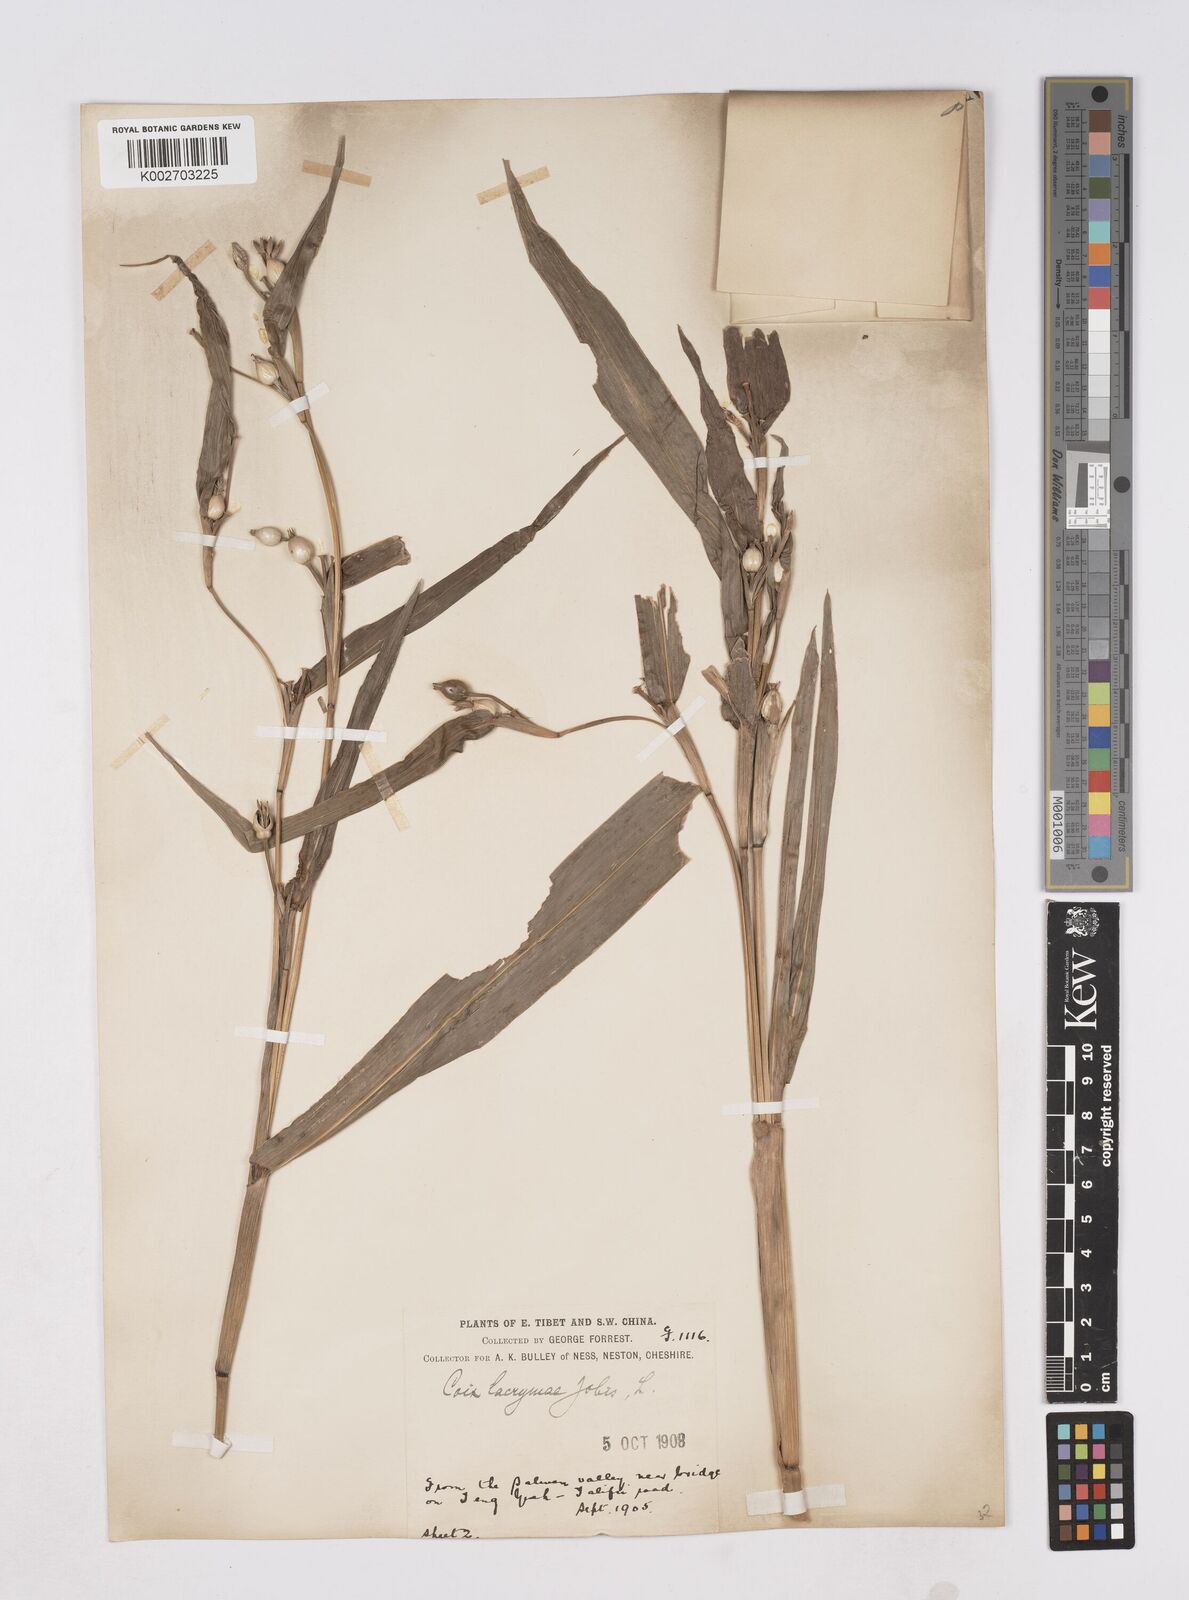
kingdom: Plantae
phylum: Tracheophyta
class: Liliopsida
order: Poales
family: Poaceae
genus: Coix
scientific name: Coix lacryma-jobi
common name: Job's tears
